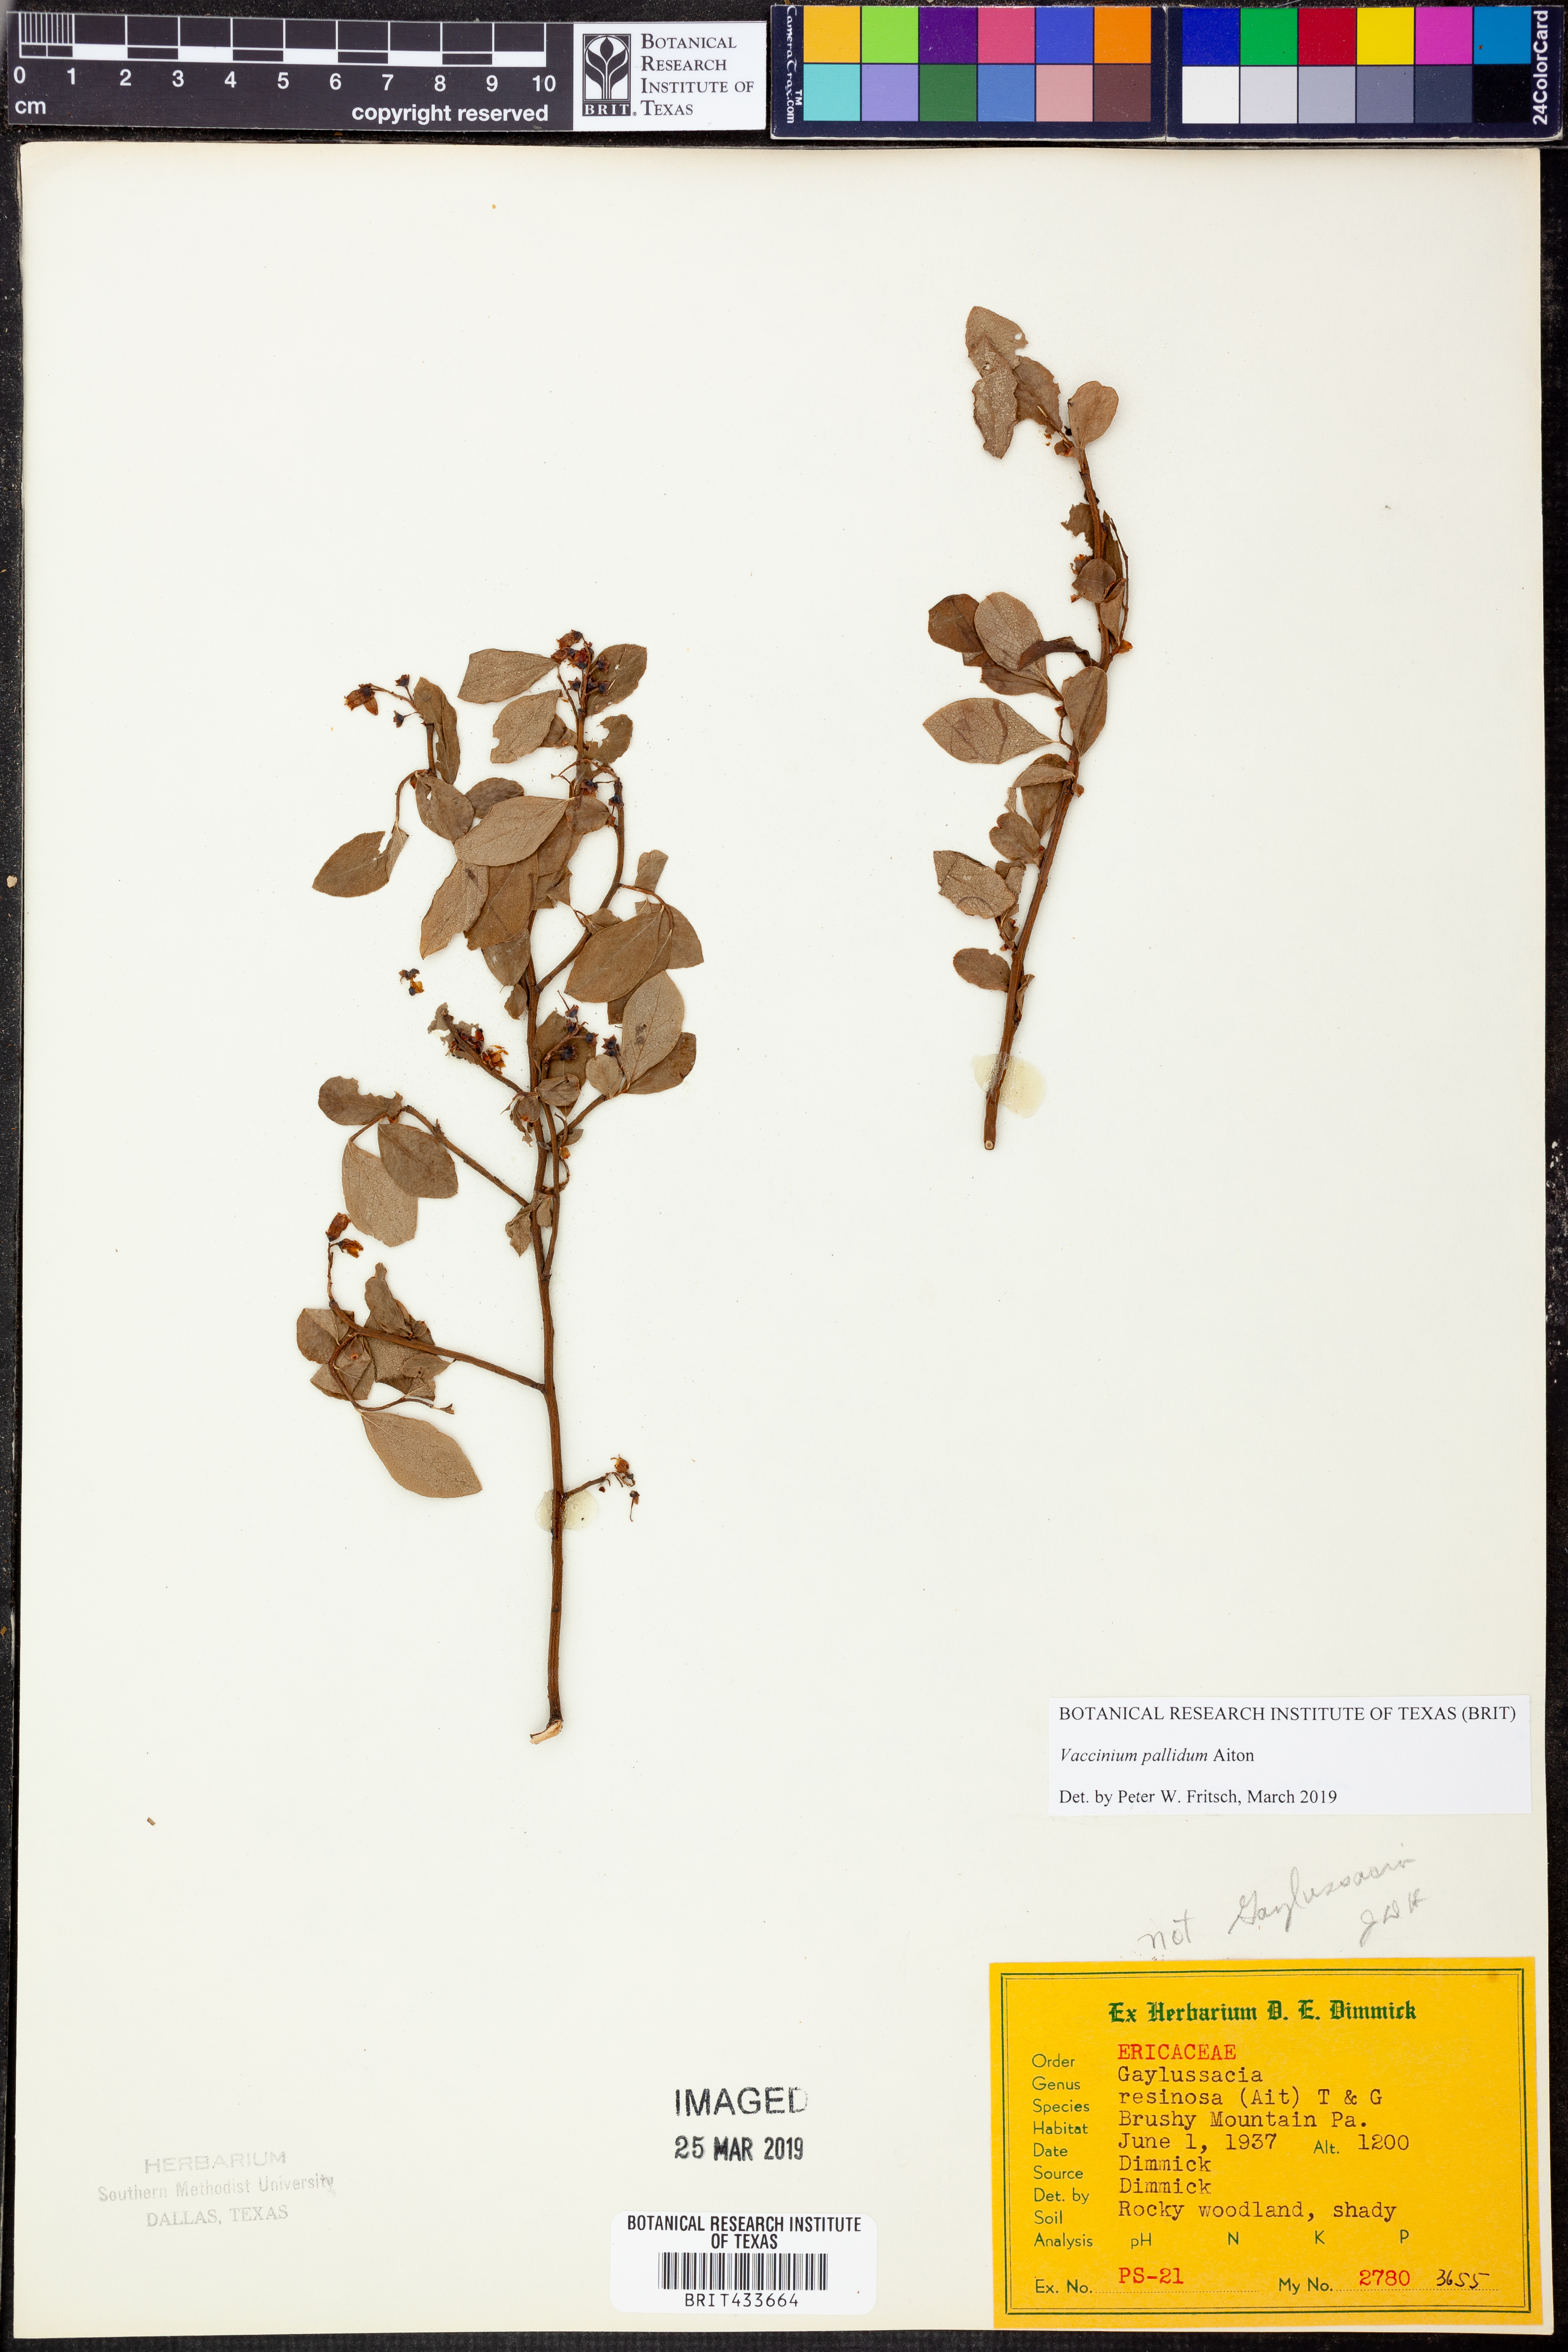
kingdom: Plantae
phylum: Tracheophyta
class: Magnoliopsida
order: Ericales
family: Ericaceae
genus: Vaccinium
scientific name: Vaccinium pallidum
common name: Blue ridge blueberry
